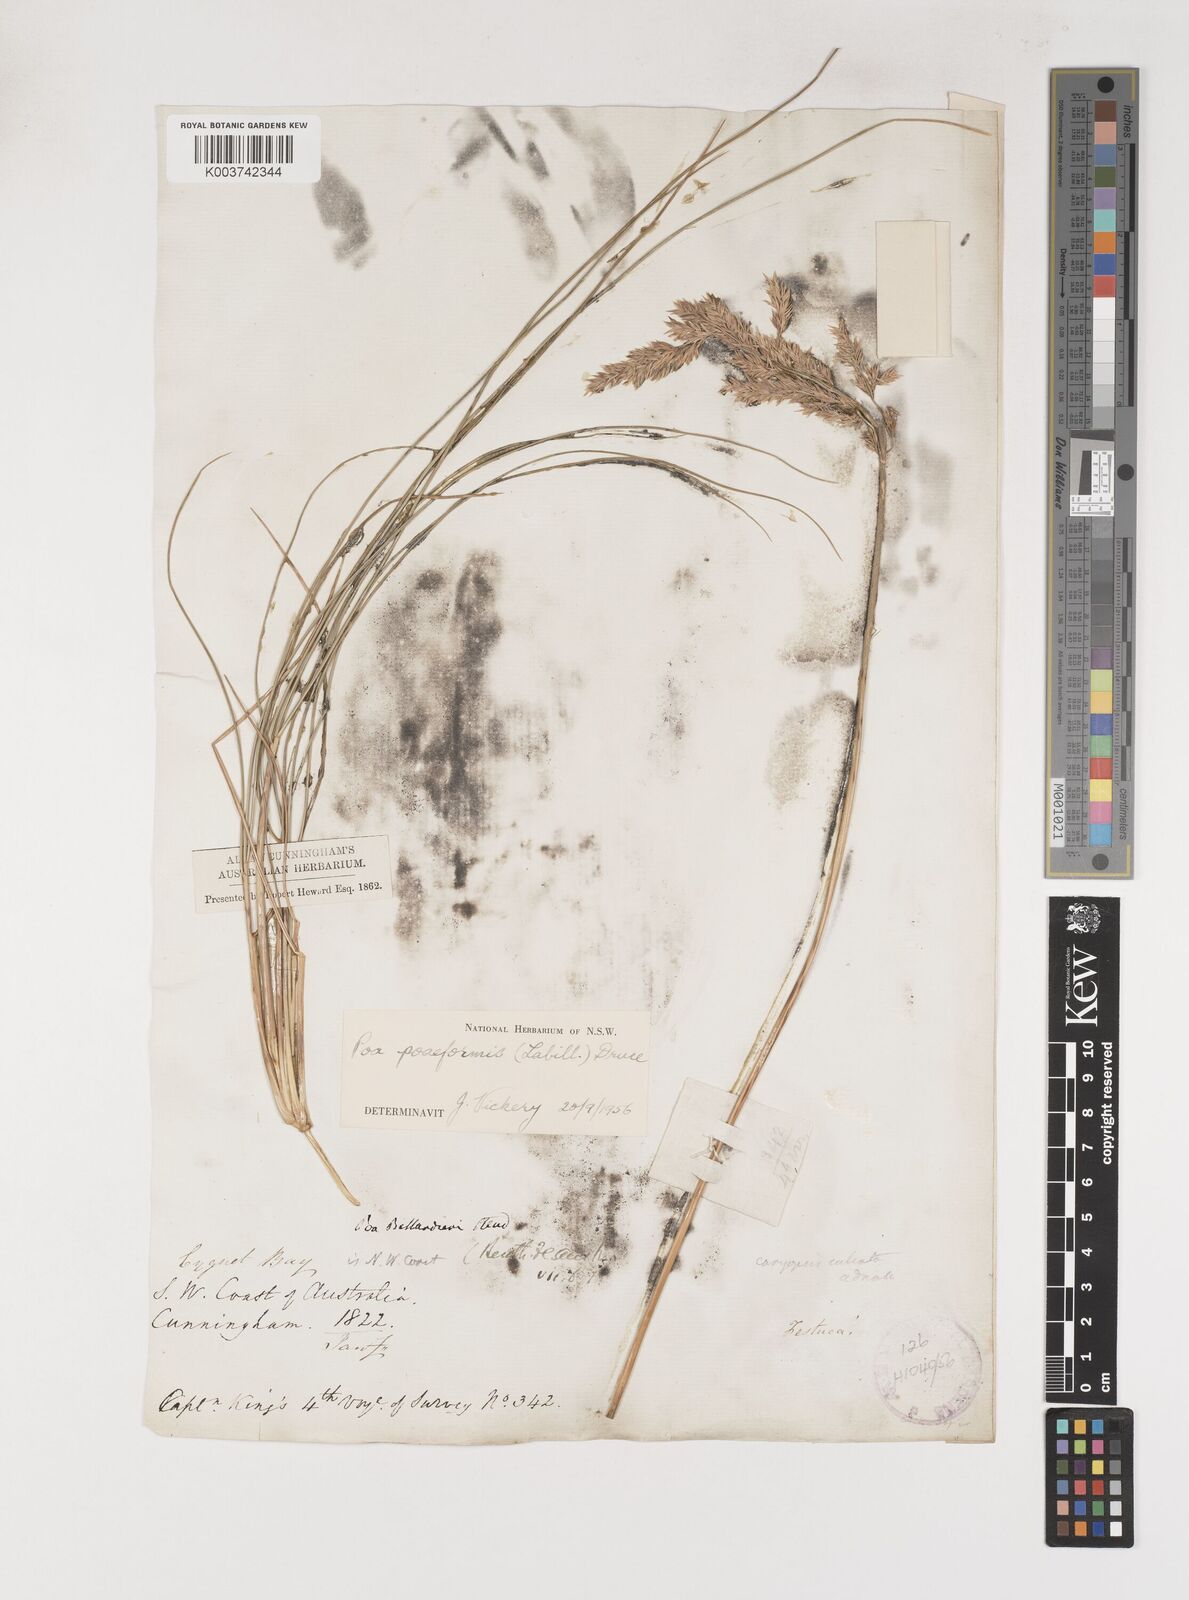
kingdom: Plantae
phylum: Tracheophyta
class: Liliopsida
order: Poales
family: Poaceae
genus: Poa
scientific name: Poa poiformis
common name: Tussock poa
